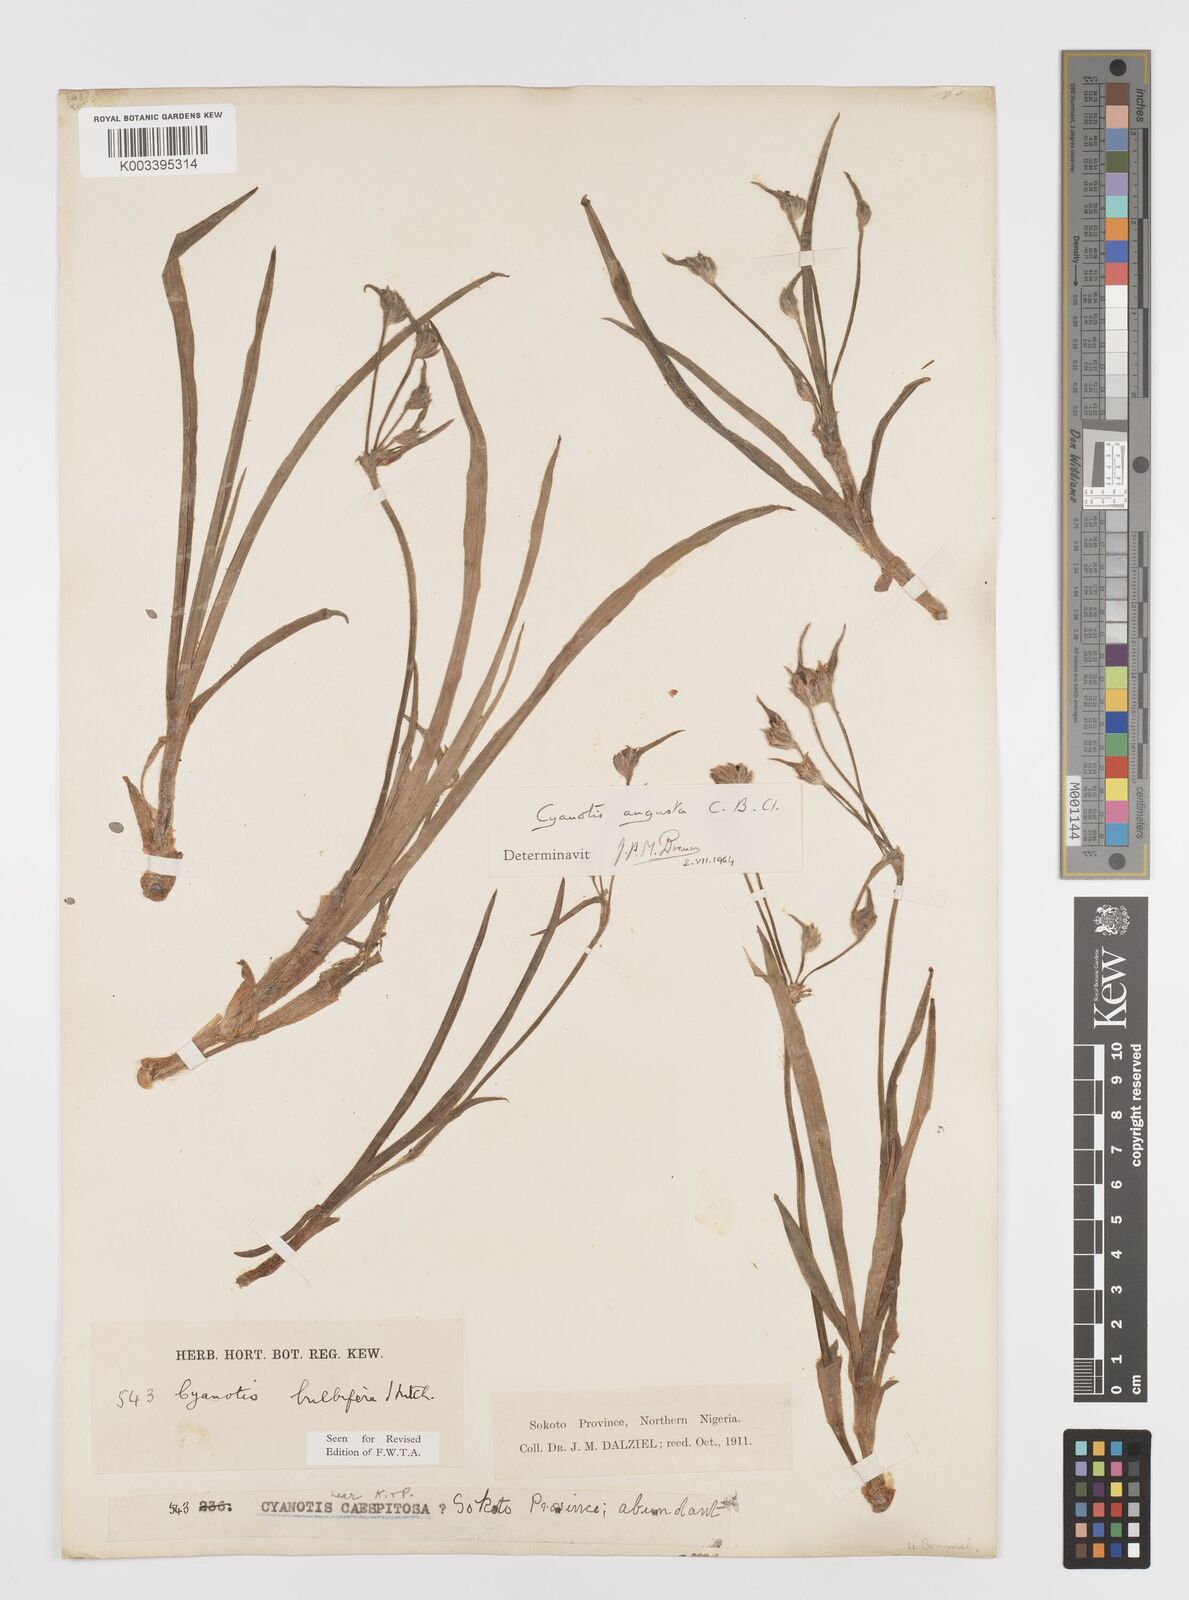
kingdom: Plantae
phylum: Tracheophyta
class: Liliopsida
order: Commelinales
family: Commelinaceae
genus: Cyanotis
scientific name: Cyanotis angusta
